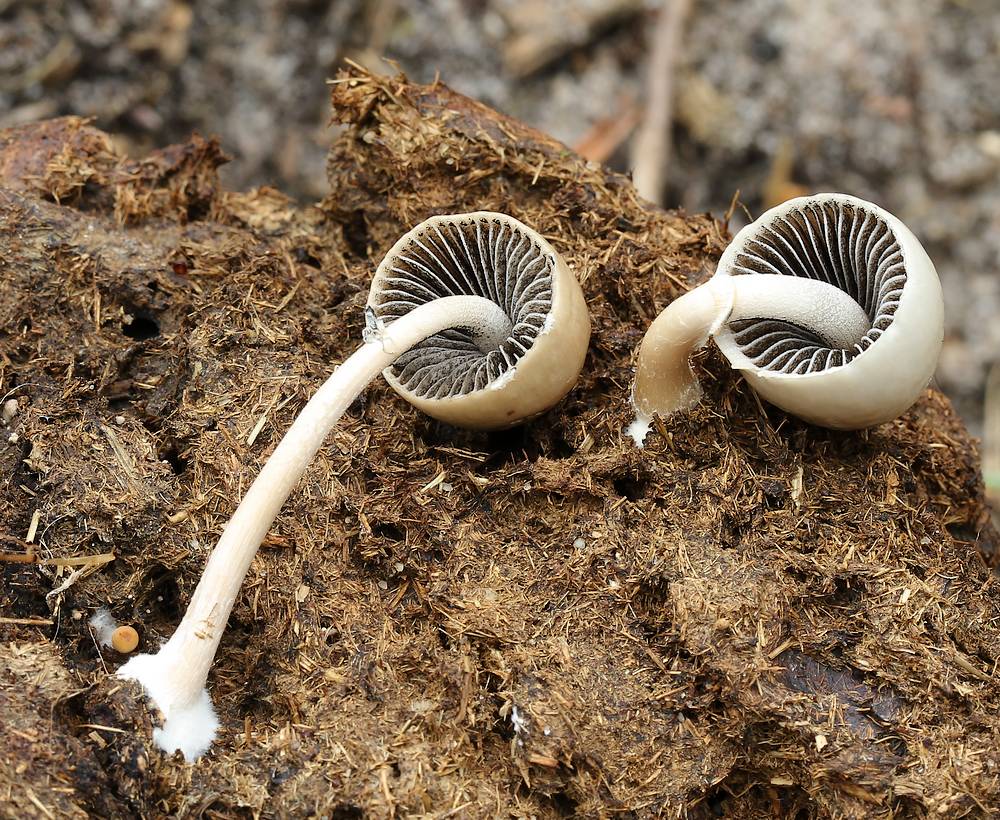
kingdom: Fungi
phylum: Basidiomycota
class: Agaricomycetes
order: Agaricales
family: Bolbitiaceae
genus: Panaeolus
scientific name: Panaeolus semiovatus
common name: ring-glanshat
